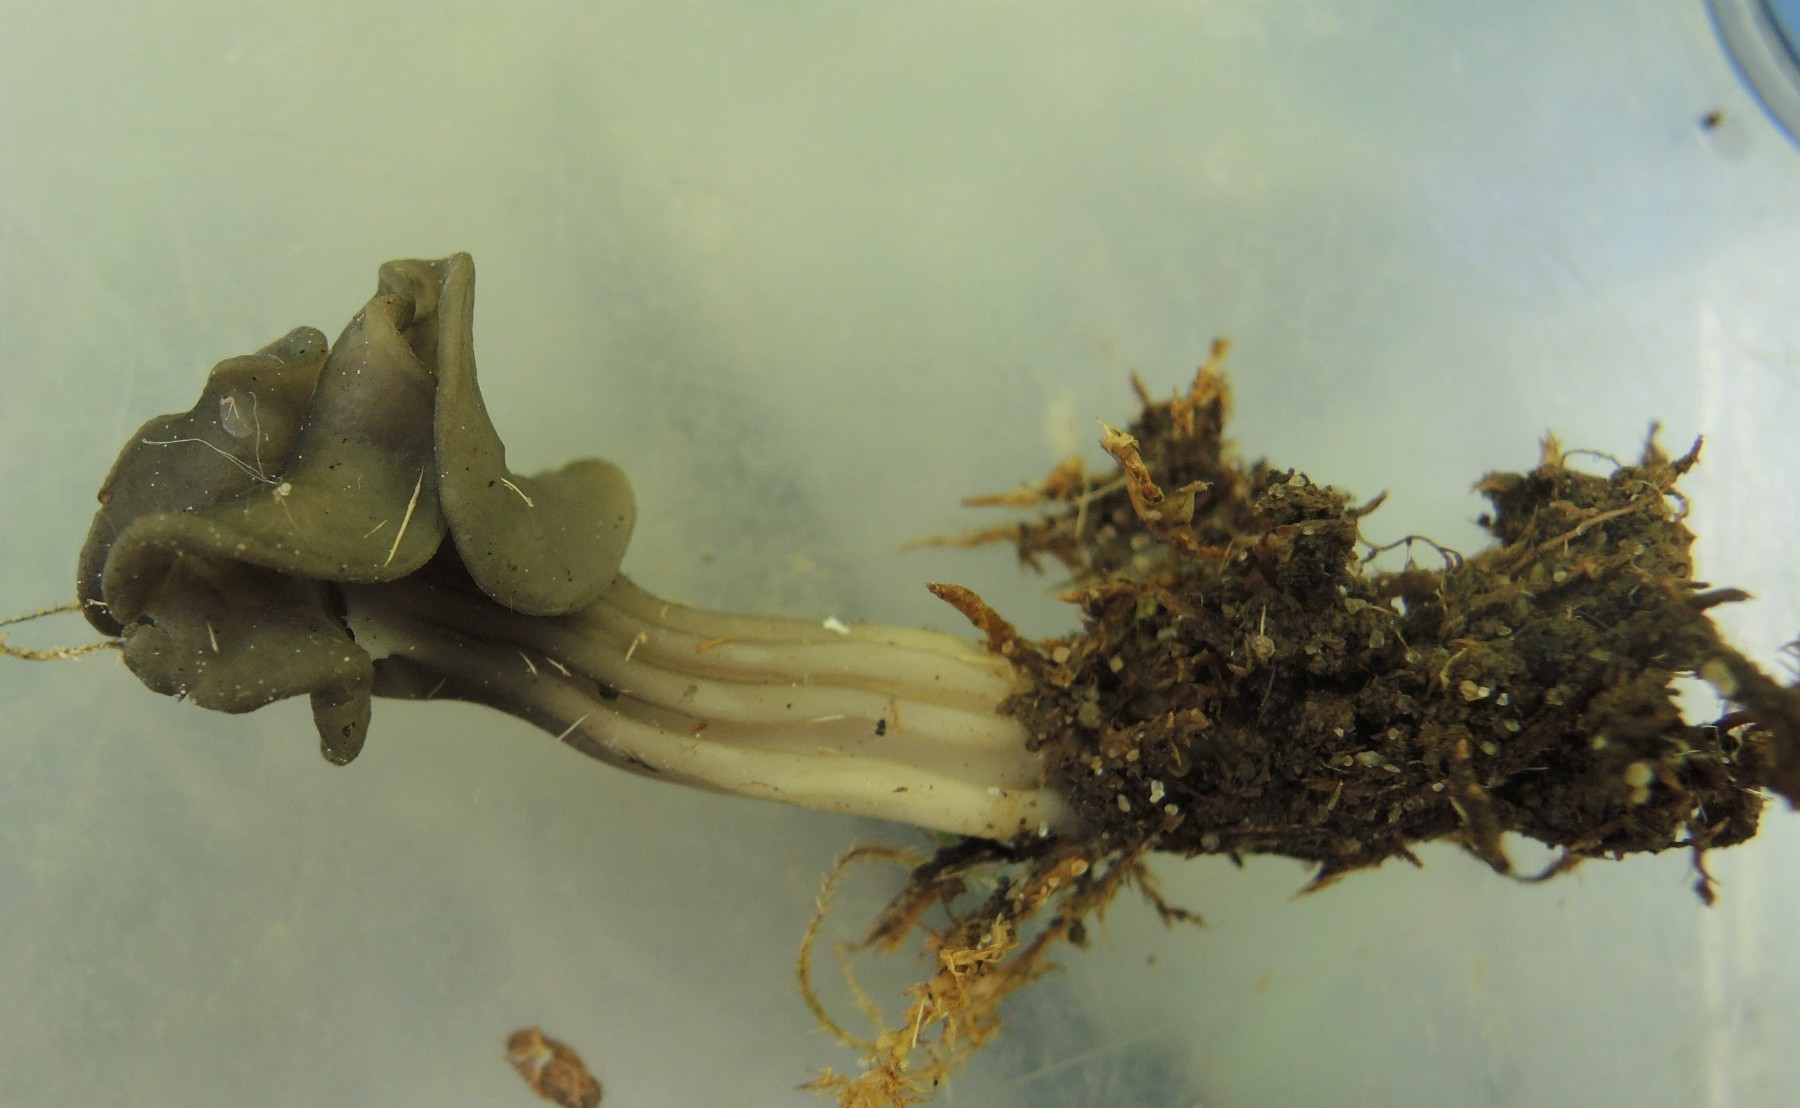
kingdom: Fungi
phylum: Ascomycota
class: Pezizomycetes
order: Pezizales
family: Helvellaceae
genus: Helvella
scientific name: Helvella lacunosa
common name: grubet foldhat
